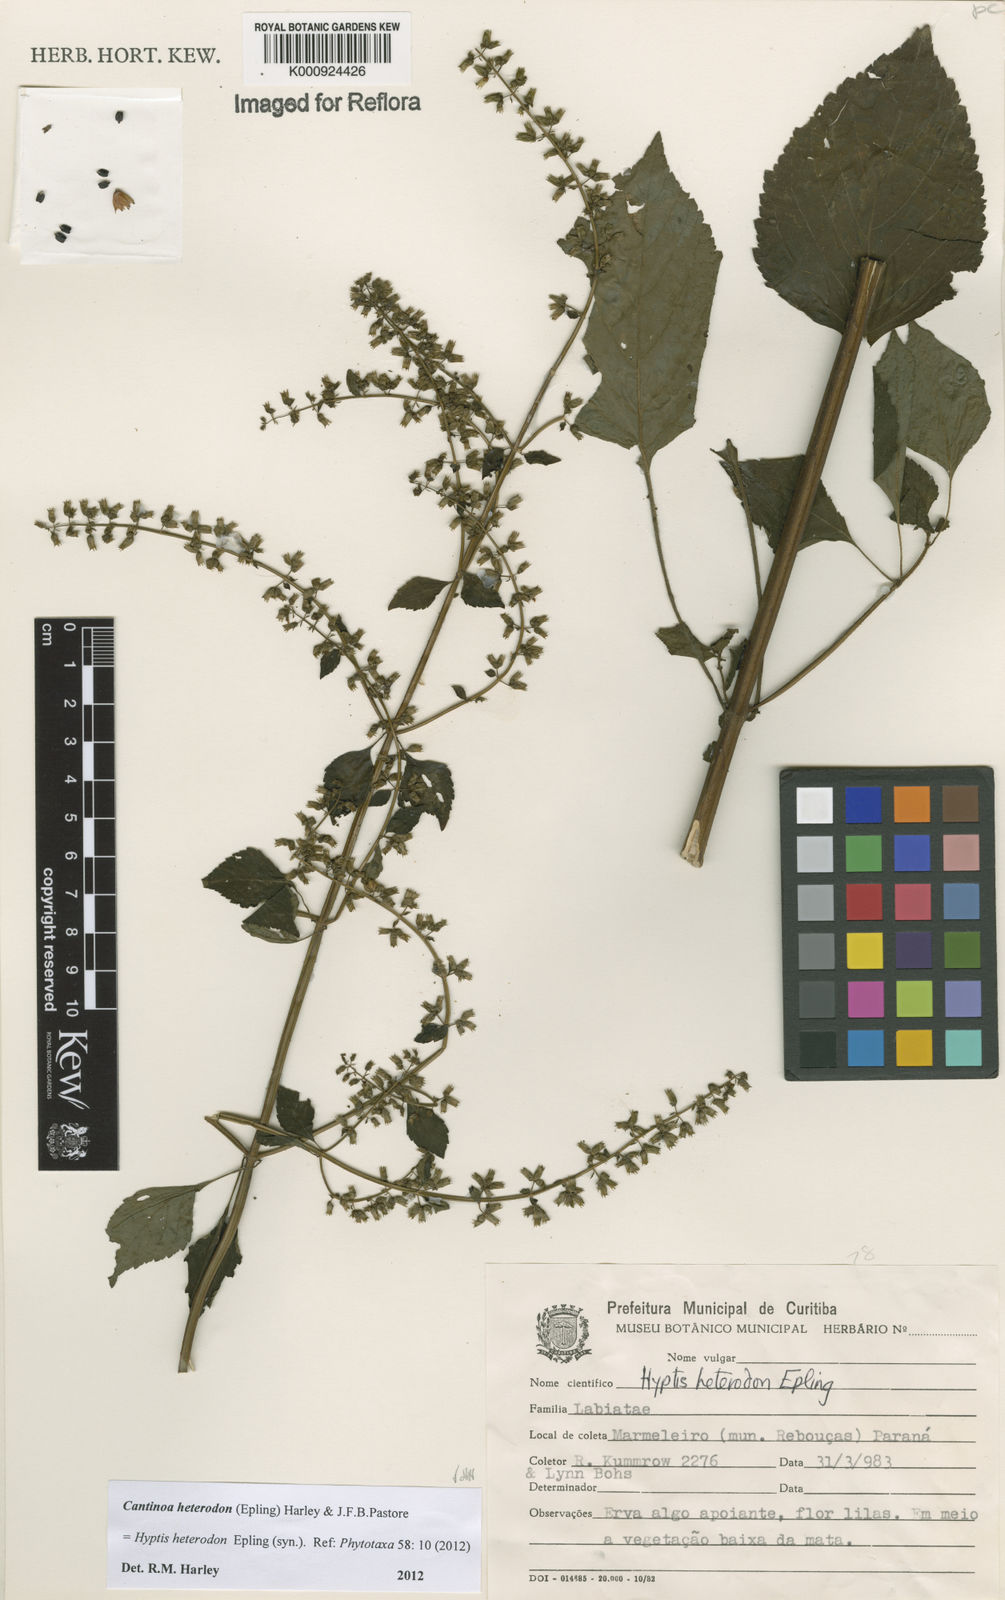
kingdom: Plantae
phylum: Tracheophyta
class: Magnoliopsida
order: Lamiales
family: Lamiaceae
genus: Cantinoa
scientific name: Cantinoa heterodon
